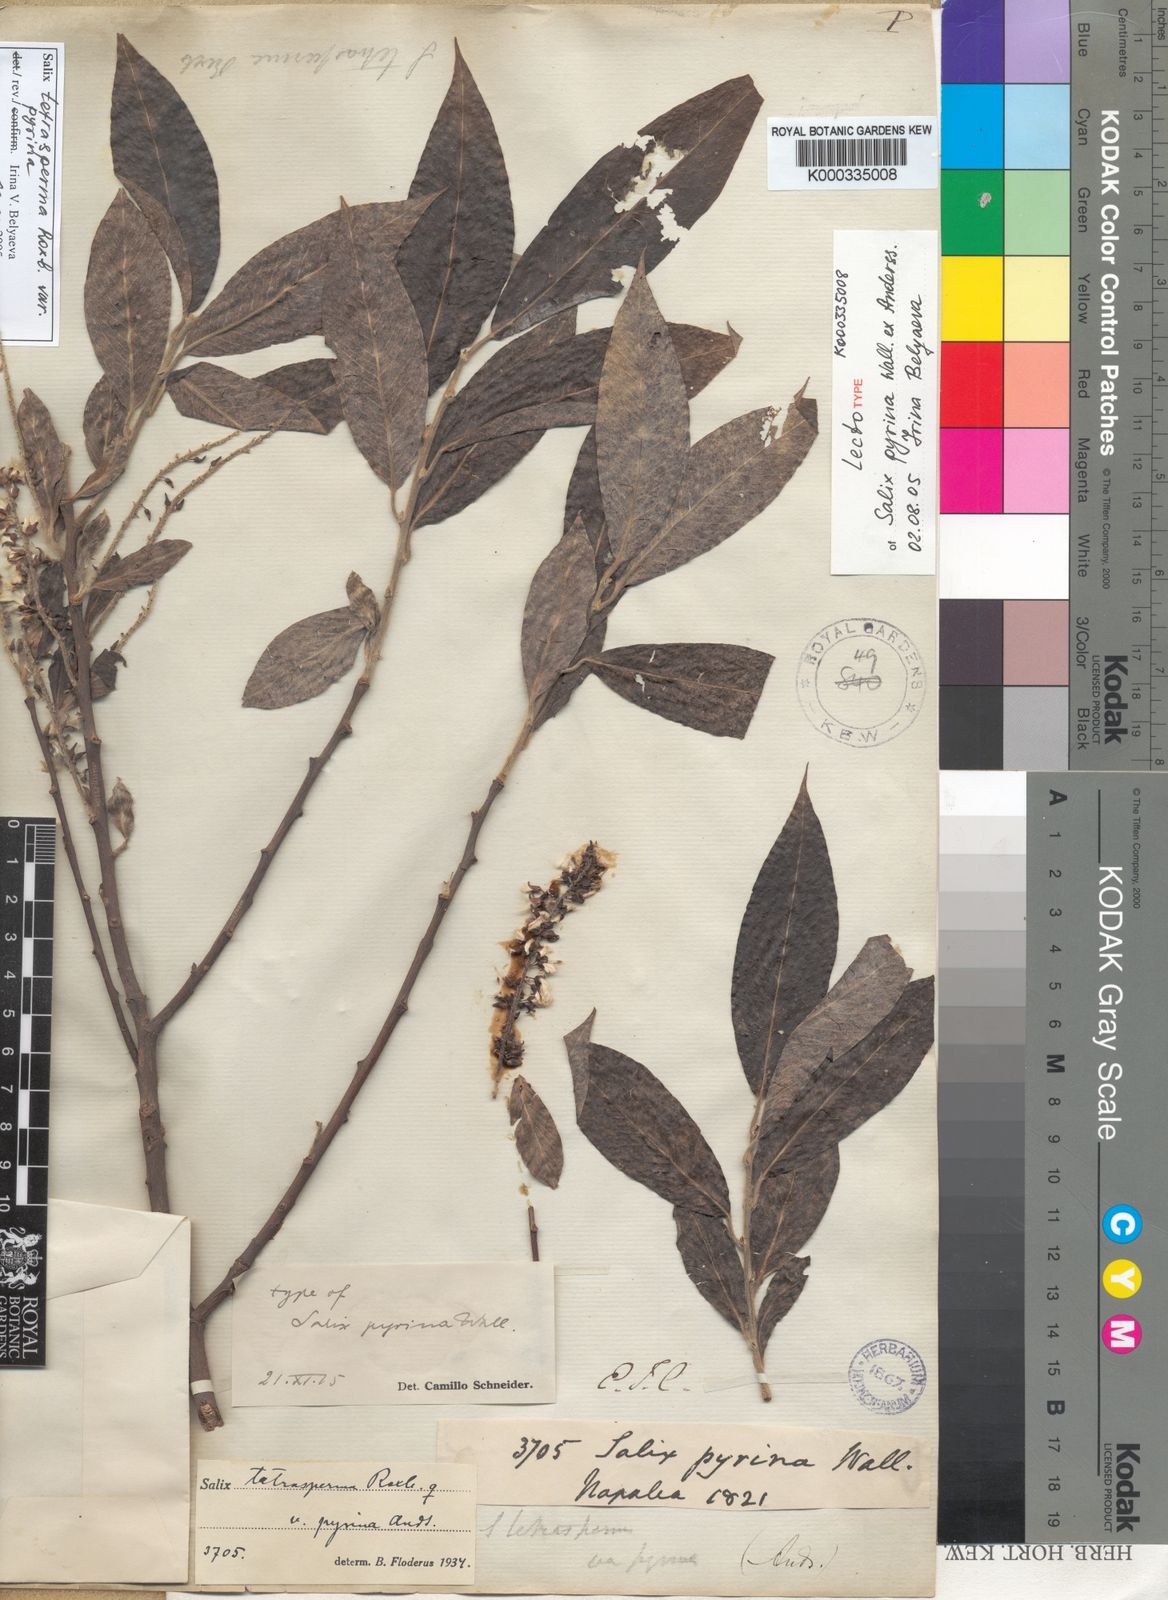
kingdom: Plantae
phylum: Tracheophyta
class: Magnoliopsida
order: Malpighiales
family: Salicaceae
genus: Salix
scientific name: Salix tetrasperma
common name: Indian willow
